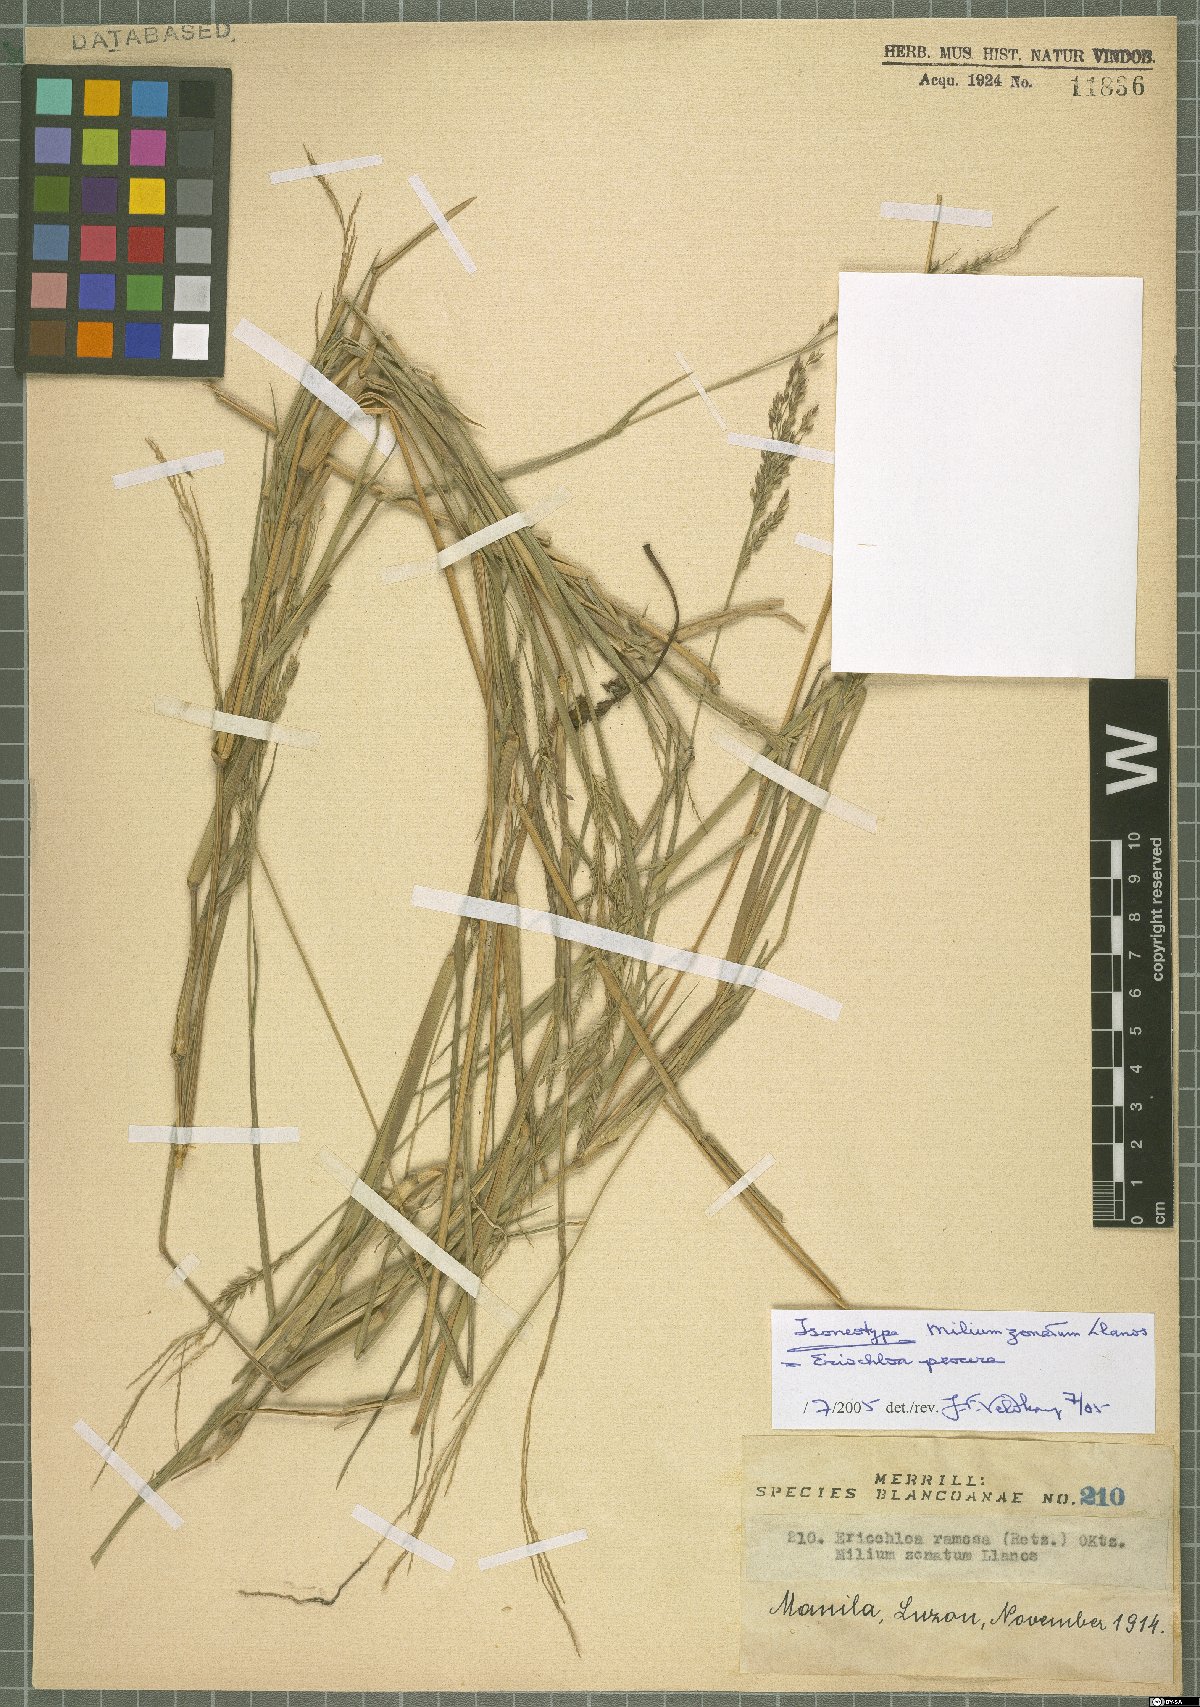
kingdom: Plantae
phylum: Tracheophyta
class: Liliopsida
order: Poales
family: Poaceae
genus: Eriochloa
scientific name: Eriochloa procera
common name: Spring grass
